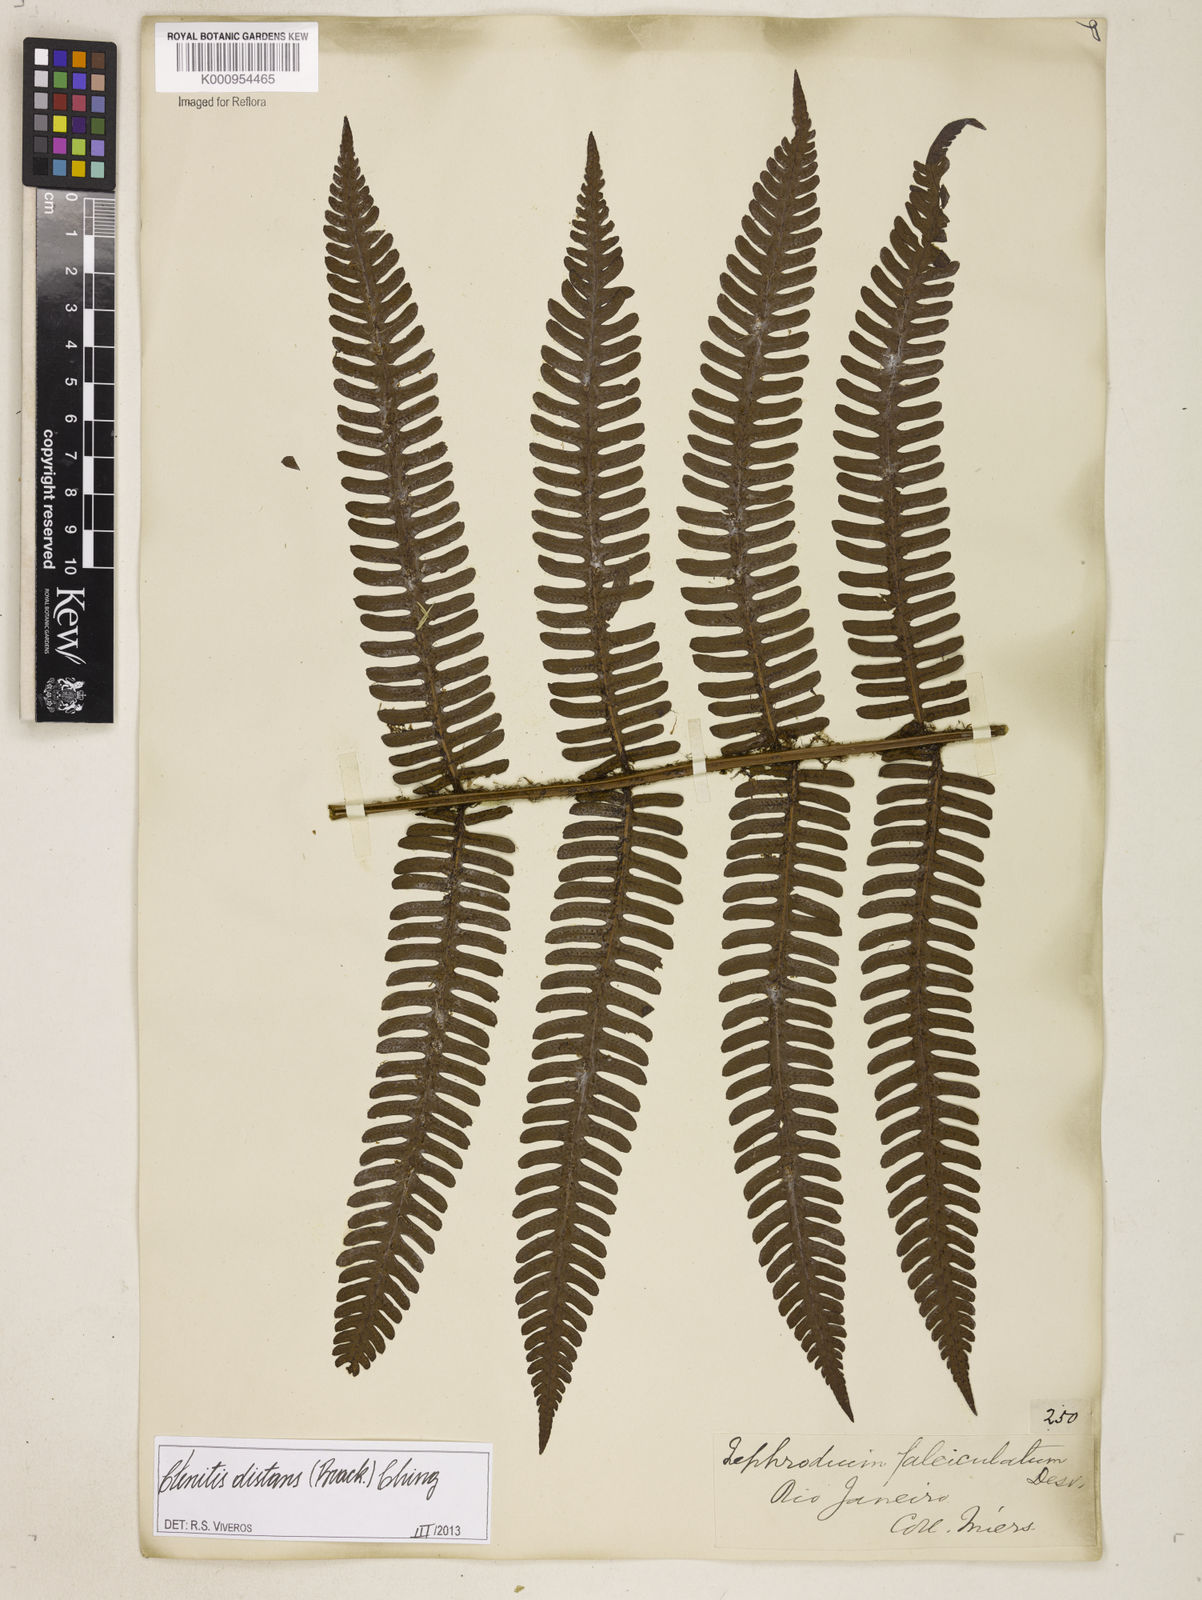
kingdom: Plantae
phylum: Tracheophyta
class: Polypodiopsida
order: Polypodiales
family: Dryopteridaceae
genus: Ctenitis
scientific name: Ctenitis distans
